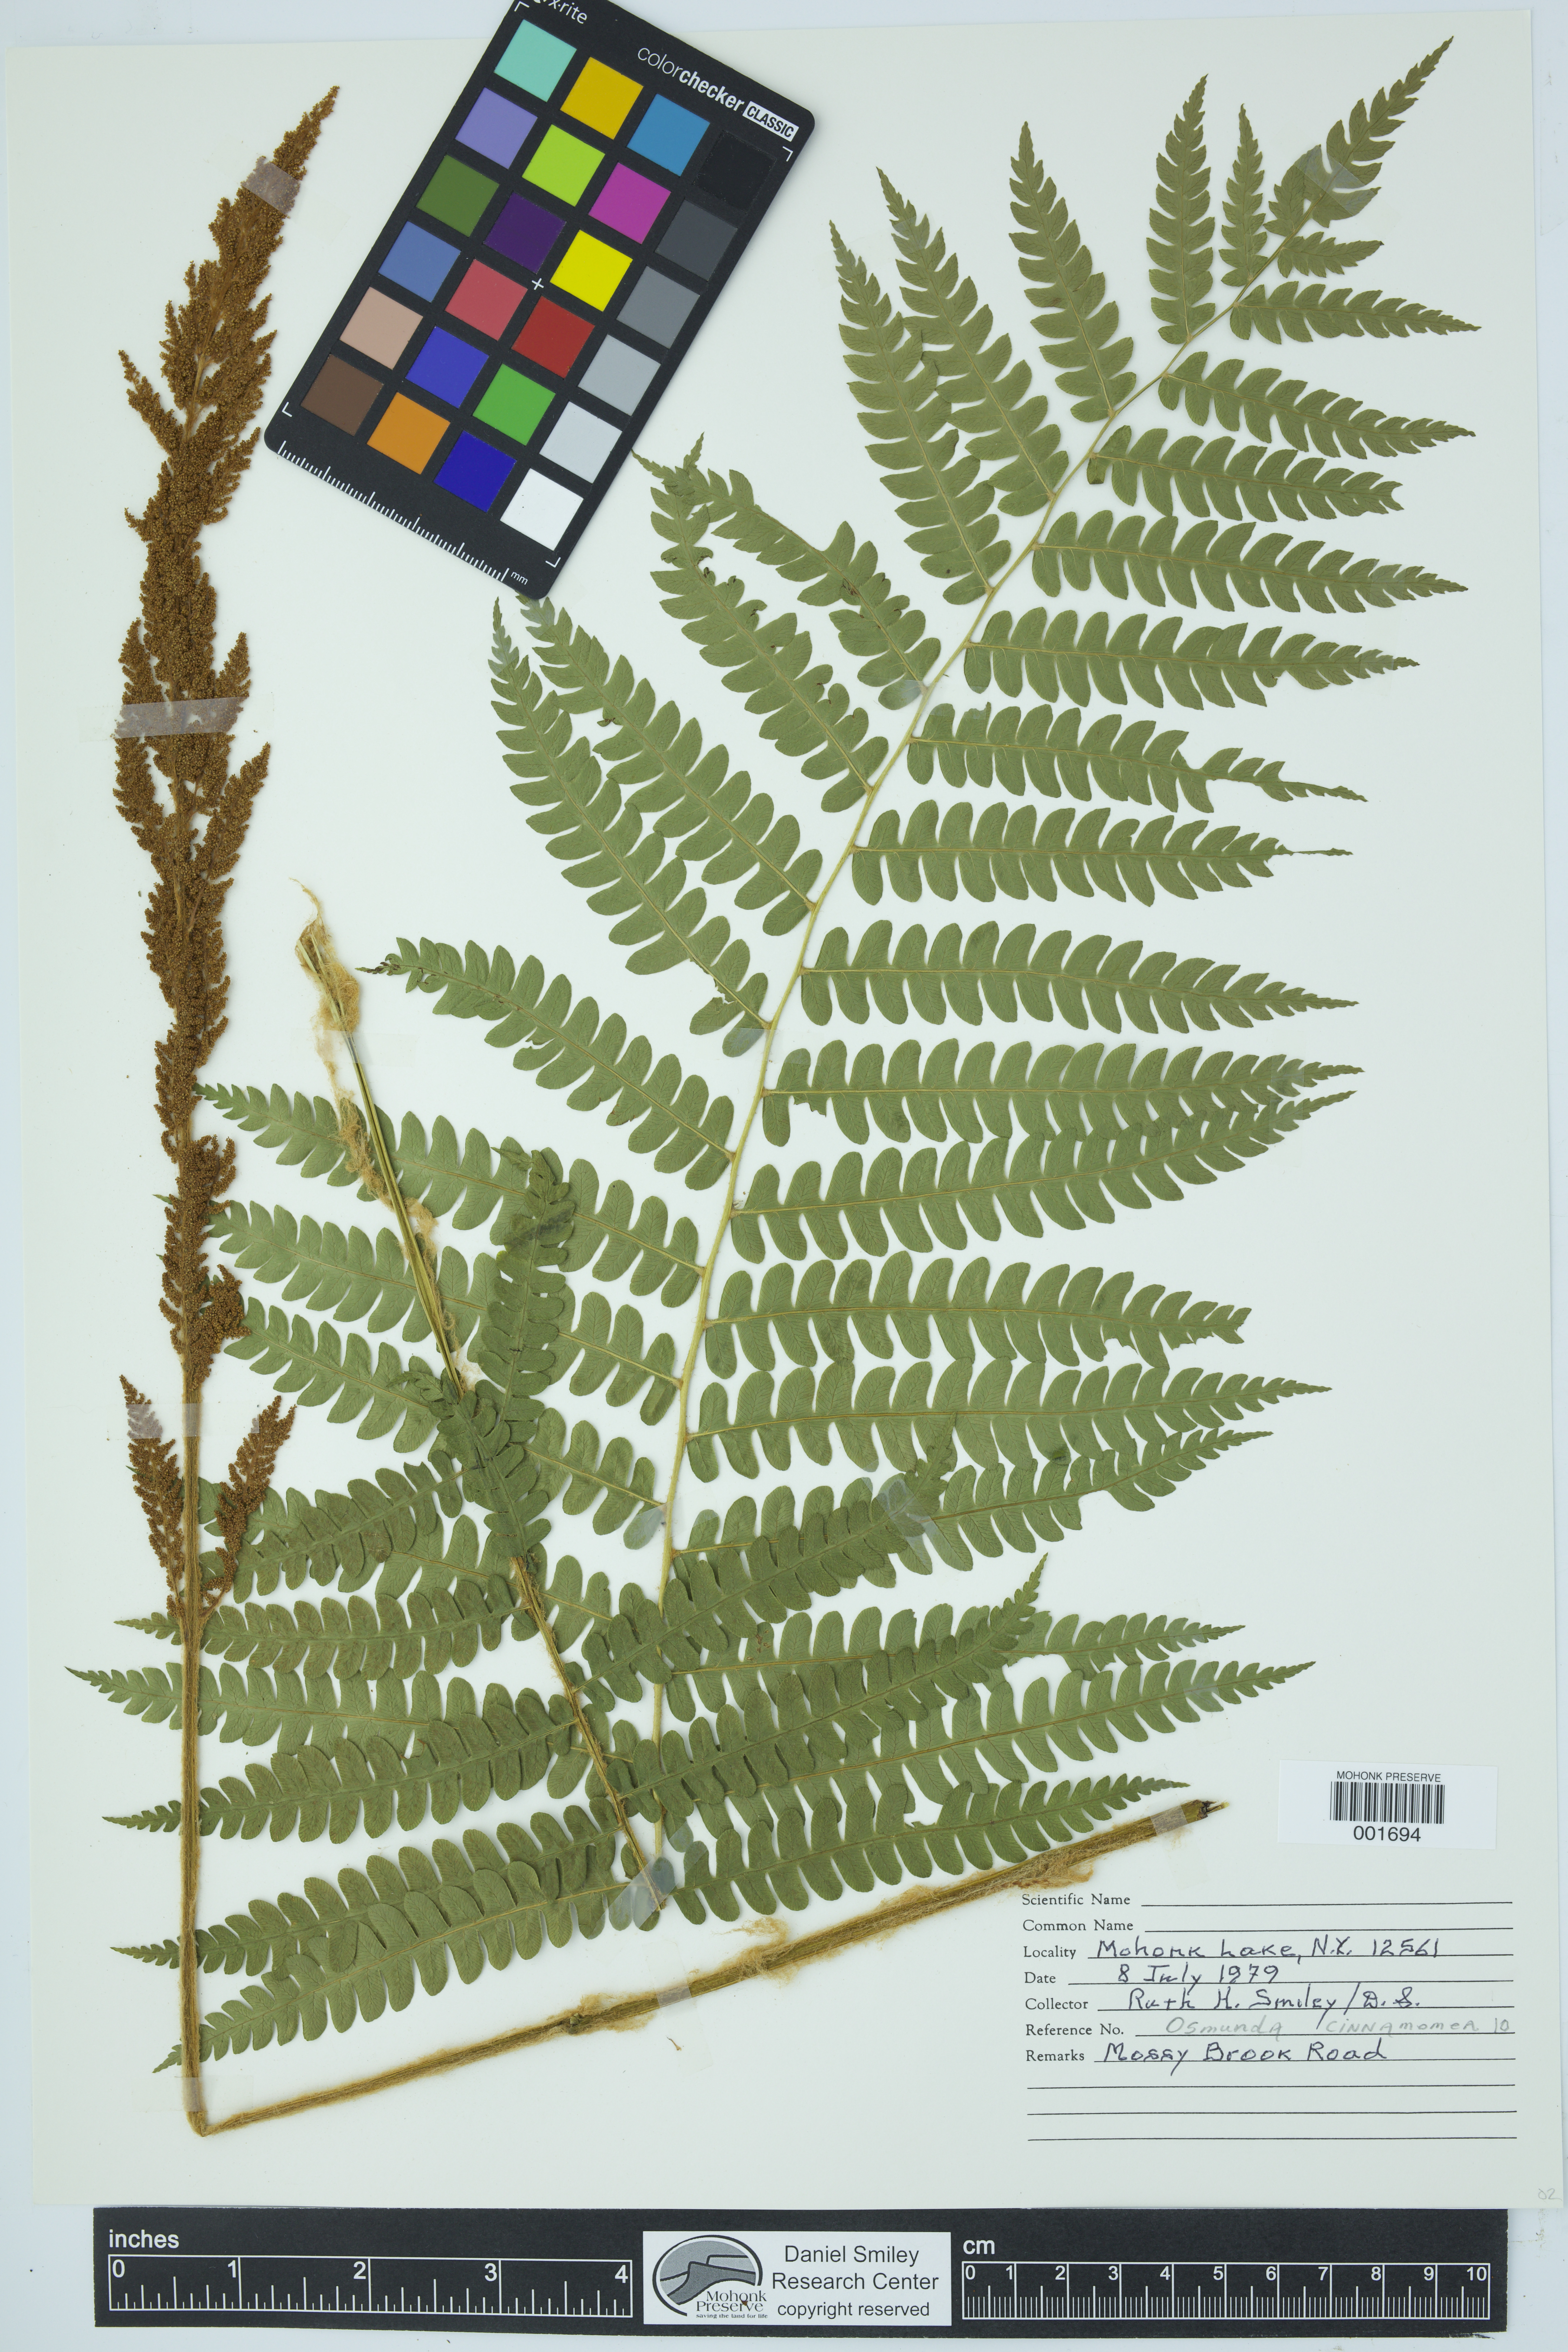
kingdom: Plantae
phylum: Tracheophyta
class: Polypodiopsida
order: Osmundales
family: Osmundaceae
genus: Osmundastrum
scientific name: Osmundastrum cinnamomeum
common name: Cinnamon fern
